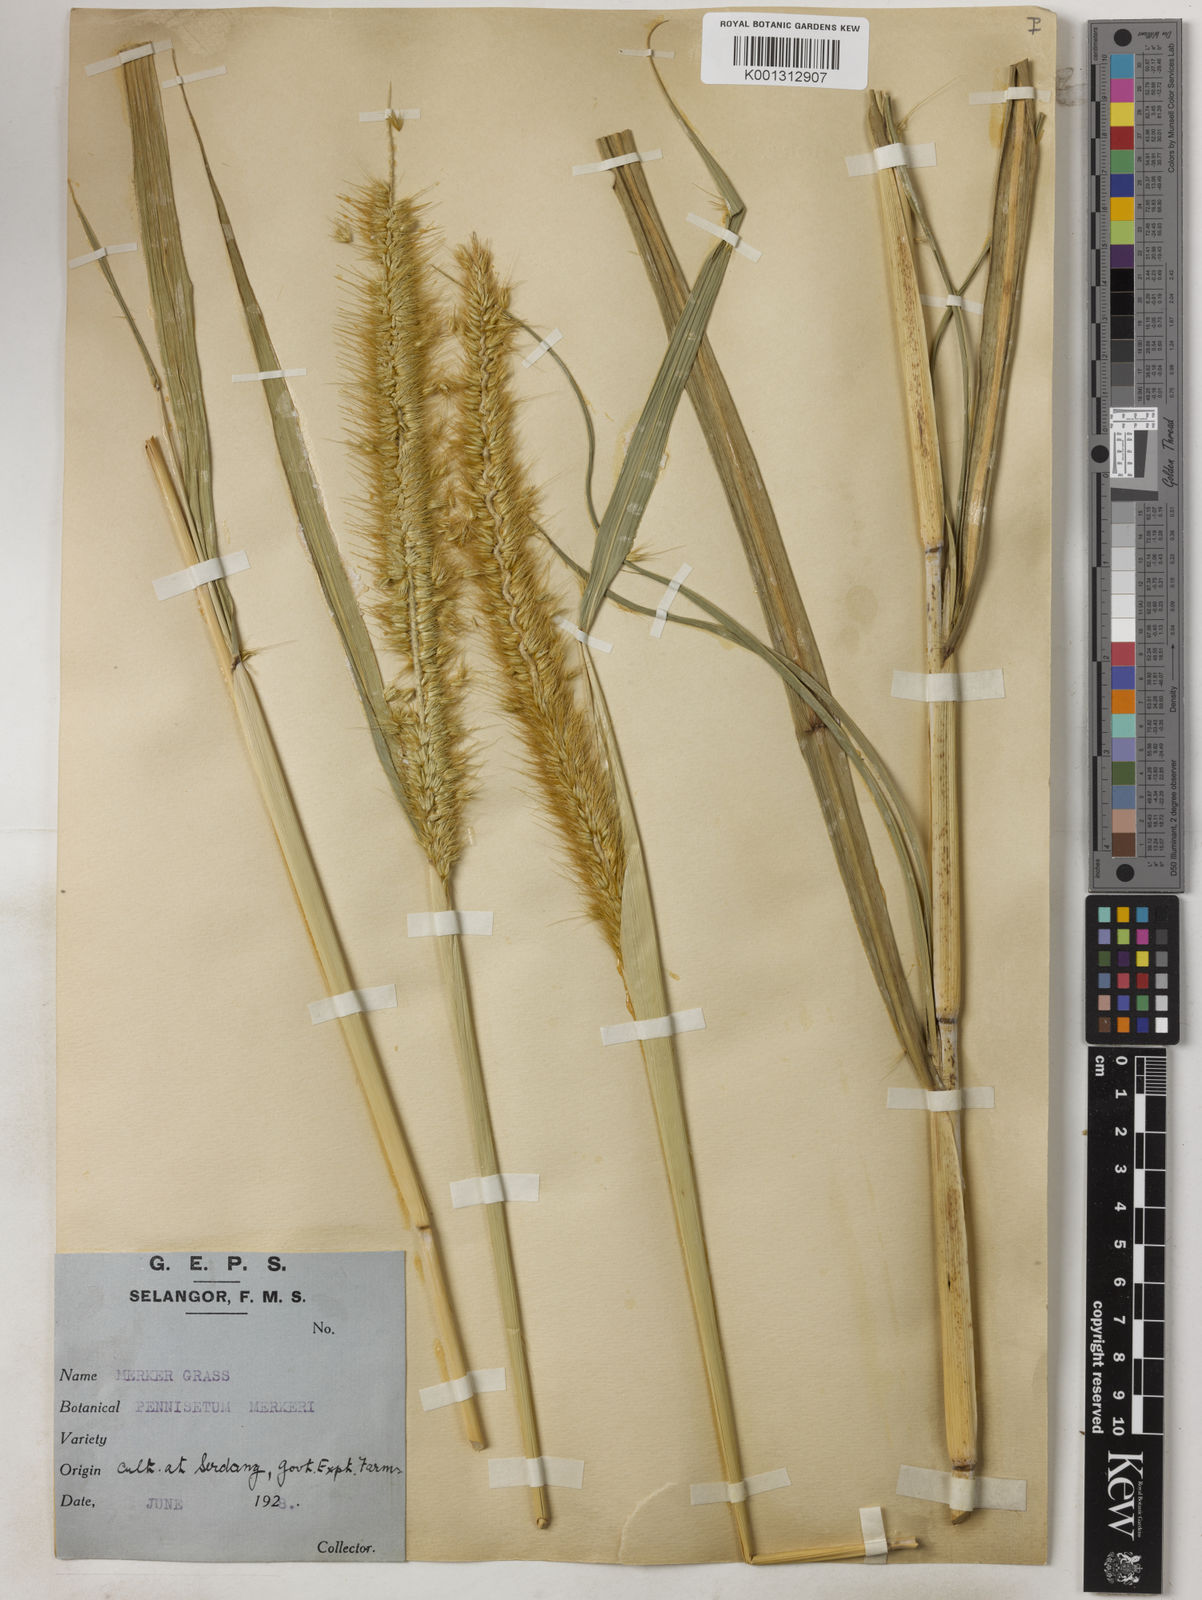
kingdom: Plantae
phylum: Tracheophyta
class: Liliopsida
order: Poales
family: Poaceae
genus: Cenchrus
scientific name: Cenchrus purpureus
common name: Elephant grass
